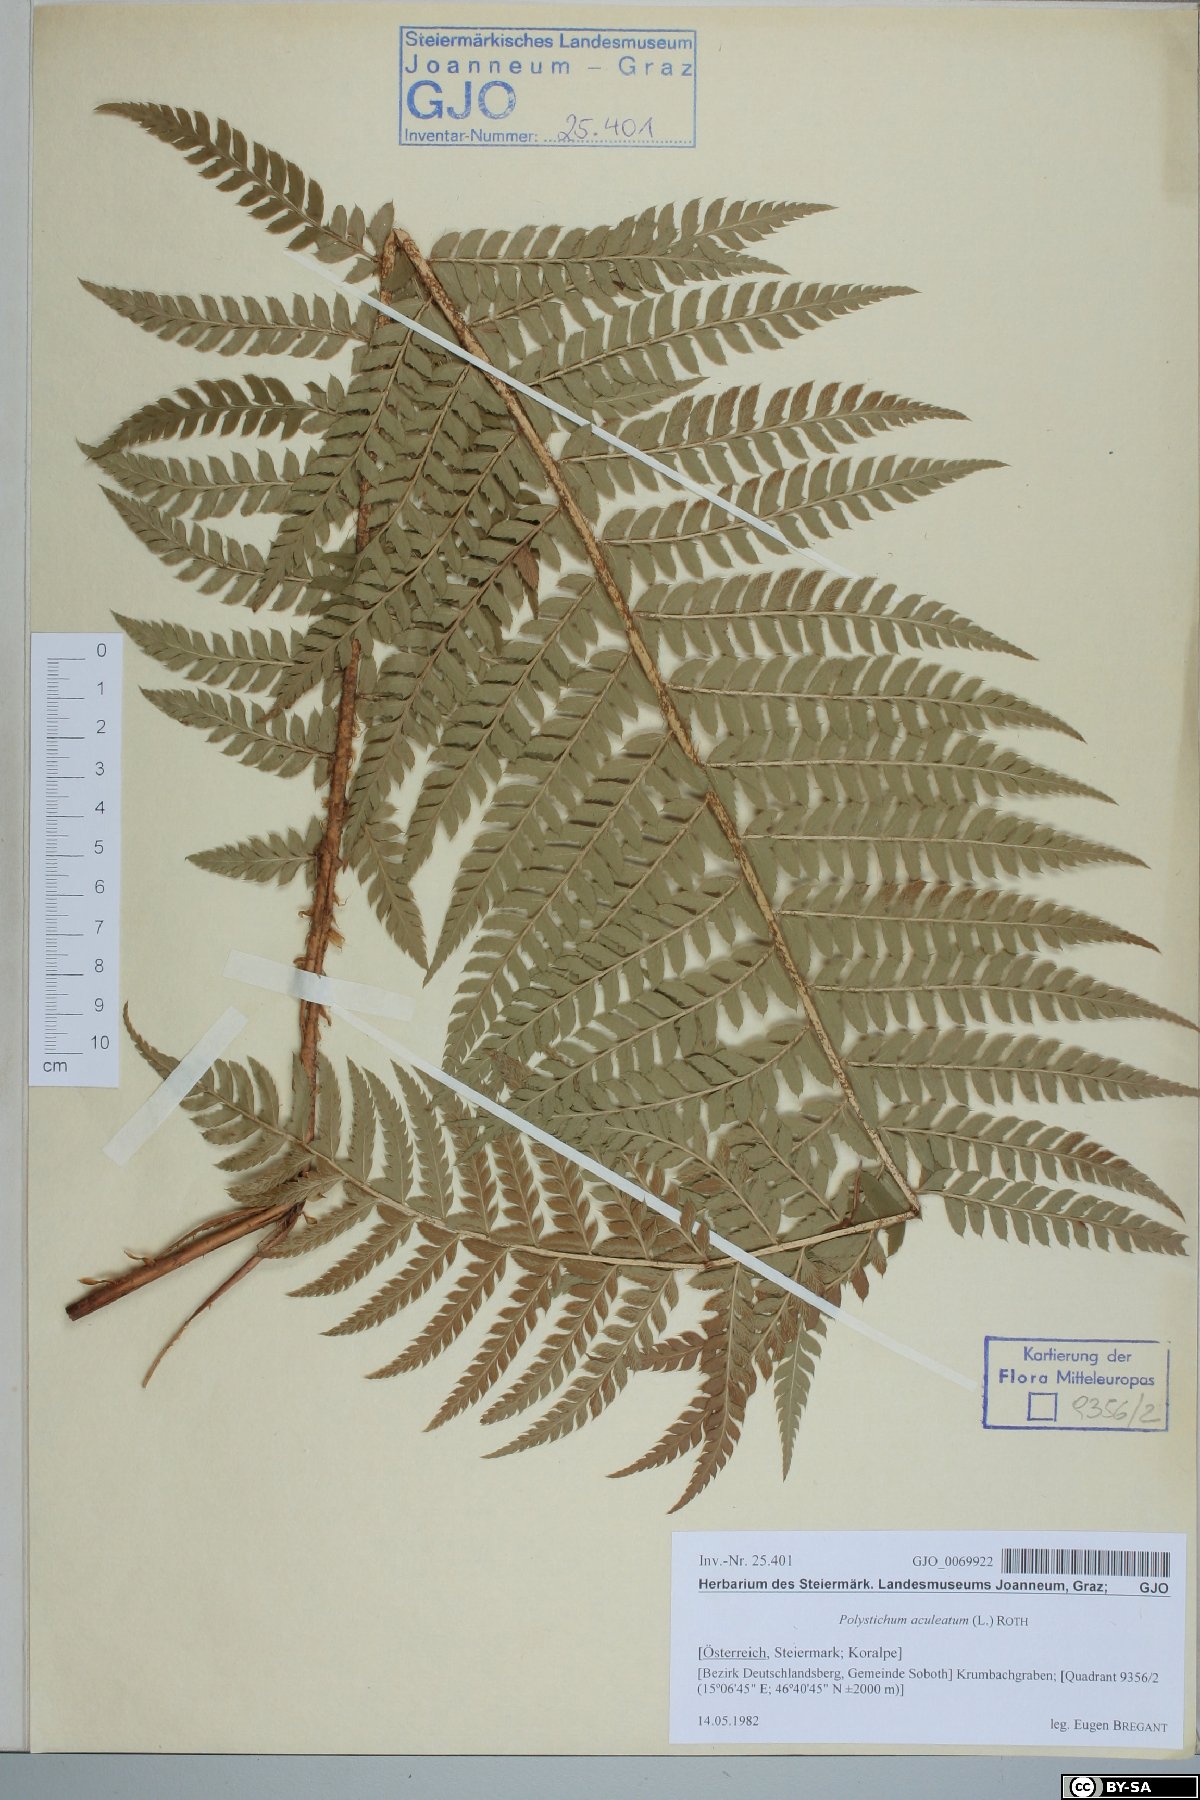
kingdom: Plantae
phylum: Tracheophyta
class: Polypodiopsida
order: Polypodiales
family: Dryopteridaceae
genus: Polystichum
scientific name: Polystichum aculeatum
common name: Hard shield-fern
